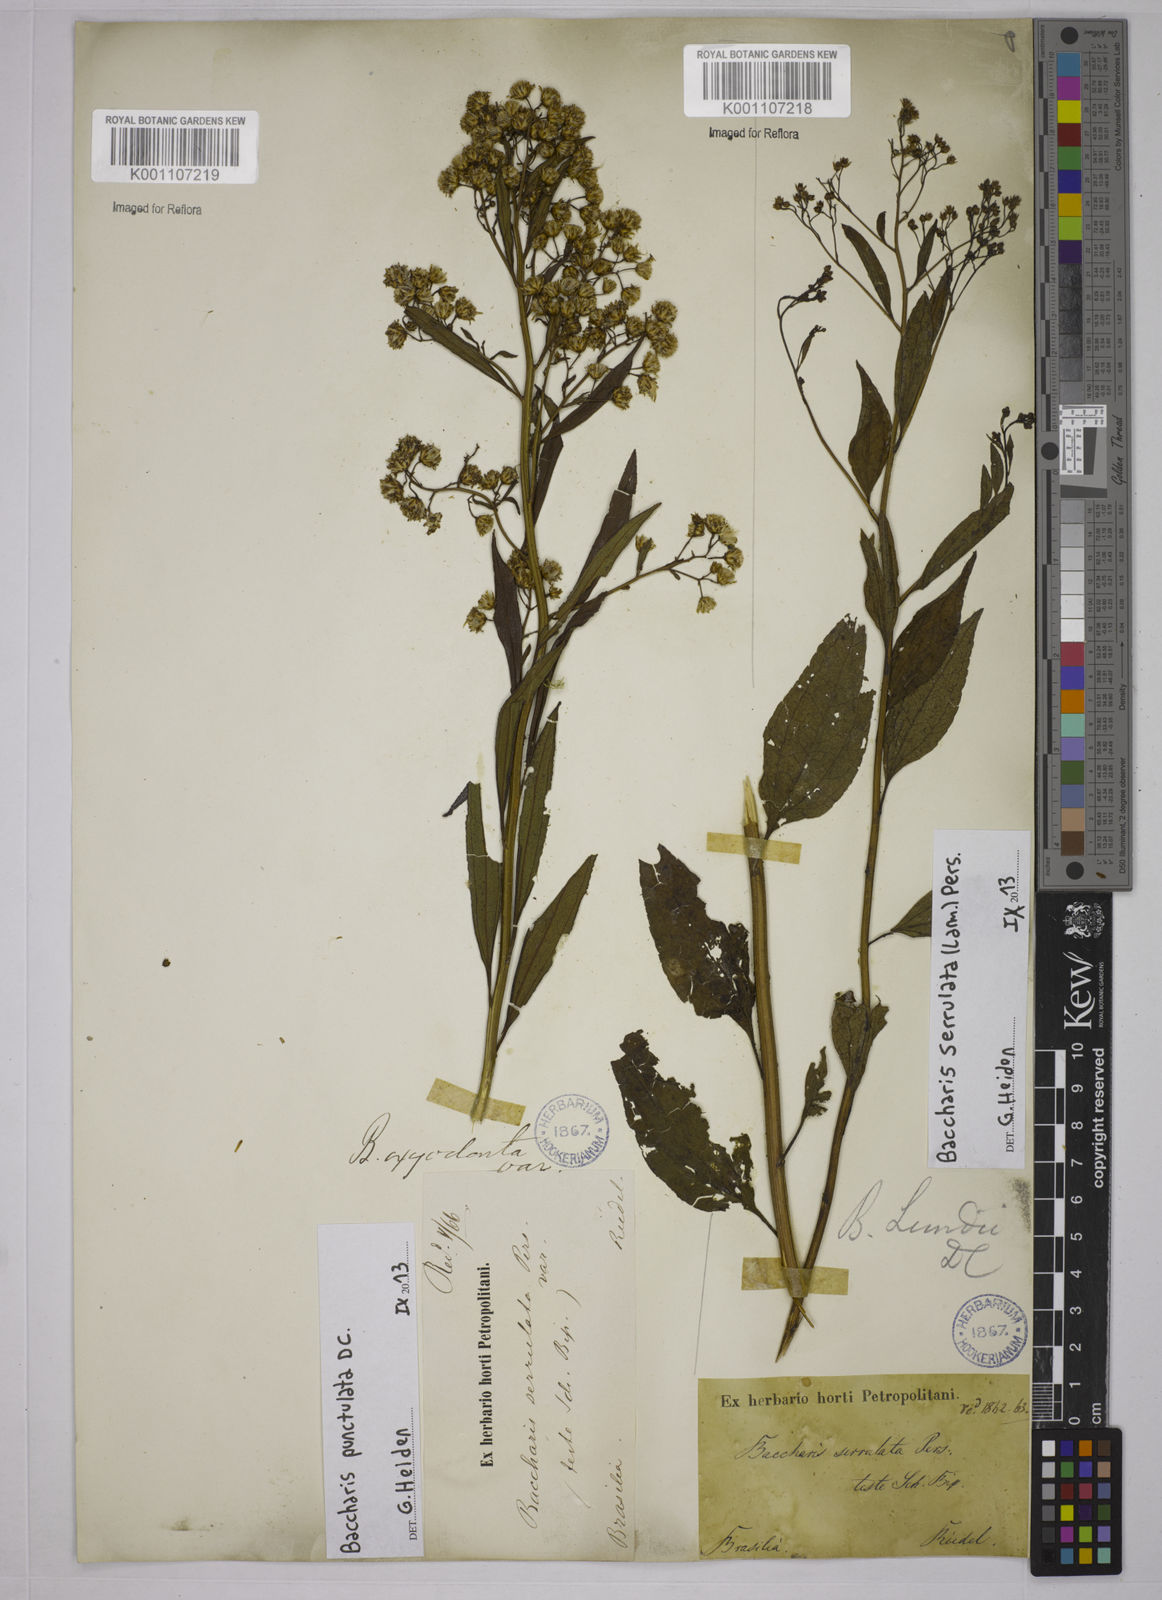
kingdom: Plantae
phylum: Tracheophyta
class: Magnoliopsida
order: Asterales
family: Asteraceae
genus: Baccharis
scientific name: Baccharis punctulata
